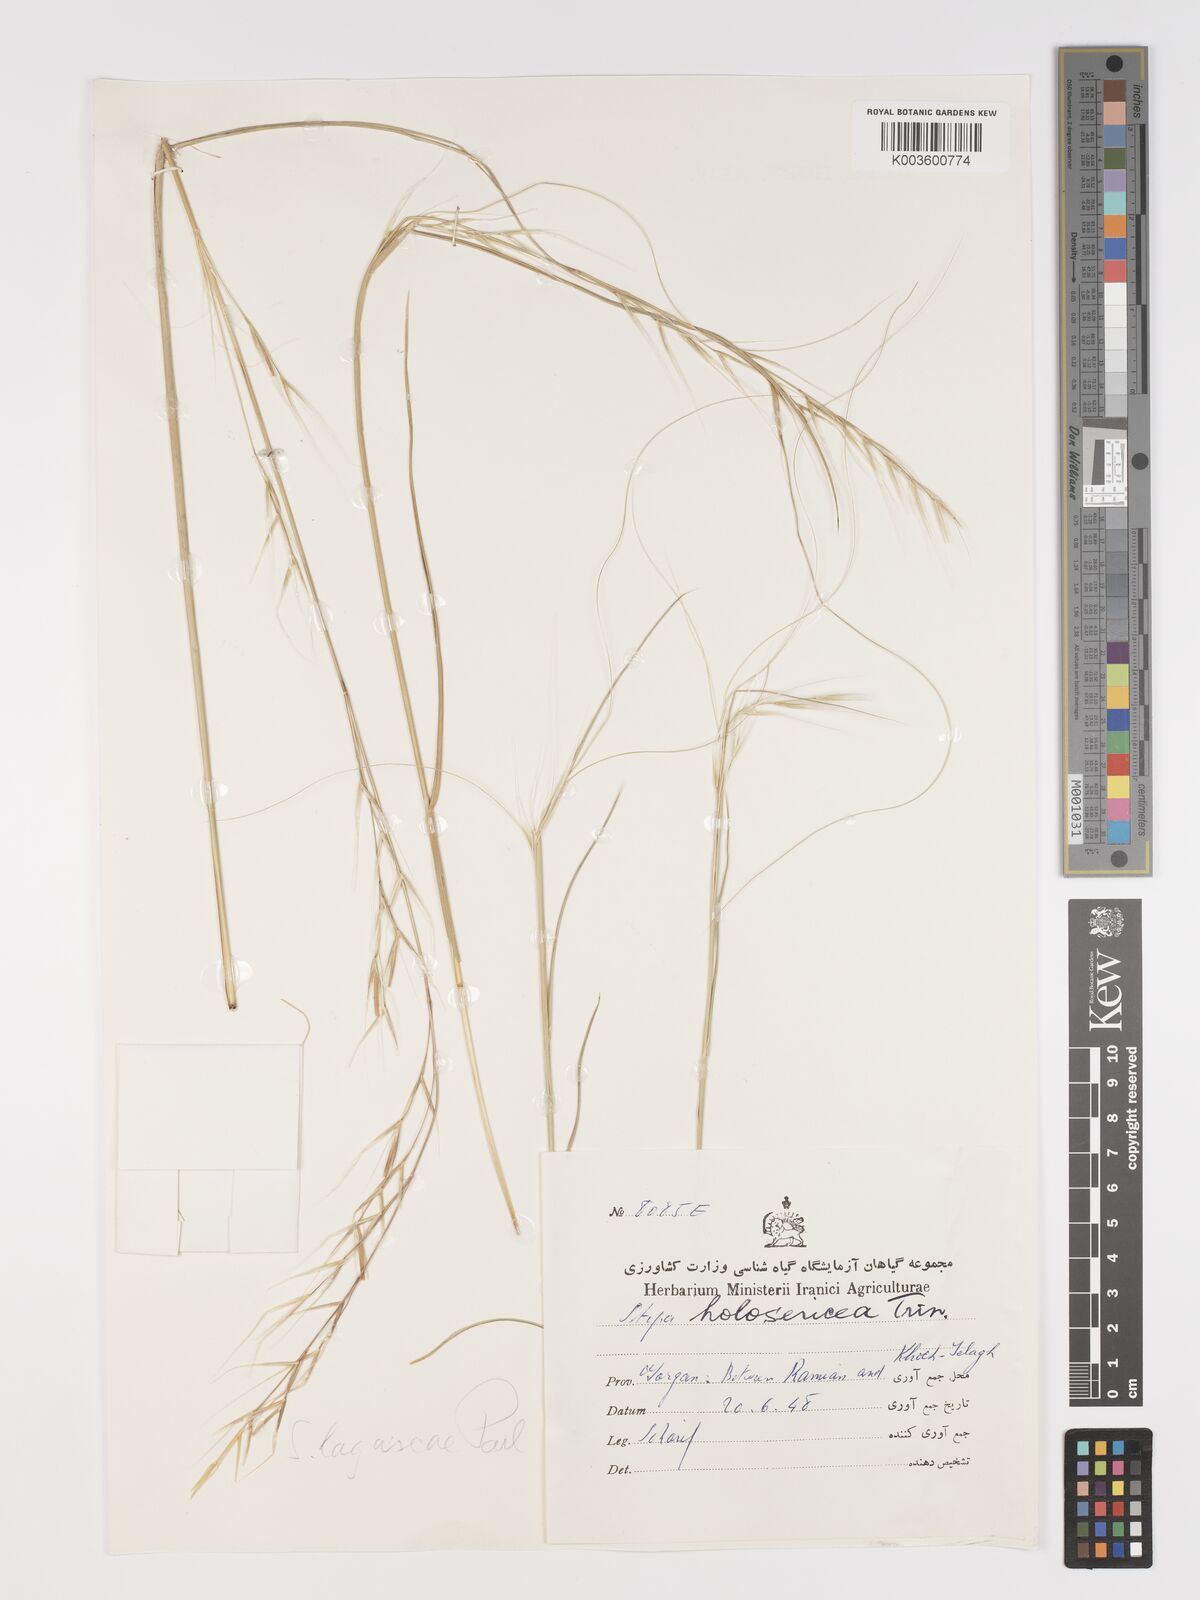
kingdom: Plantae
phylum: Tracheophyta
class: Liliopsida
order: Poales
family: Poaceae
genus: Stipa
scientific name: Stipa lagascae
